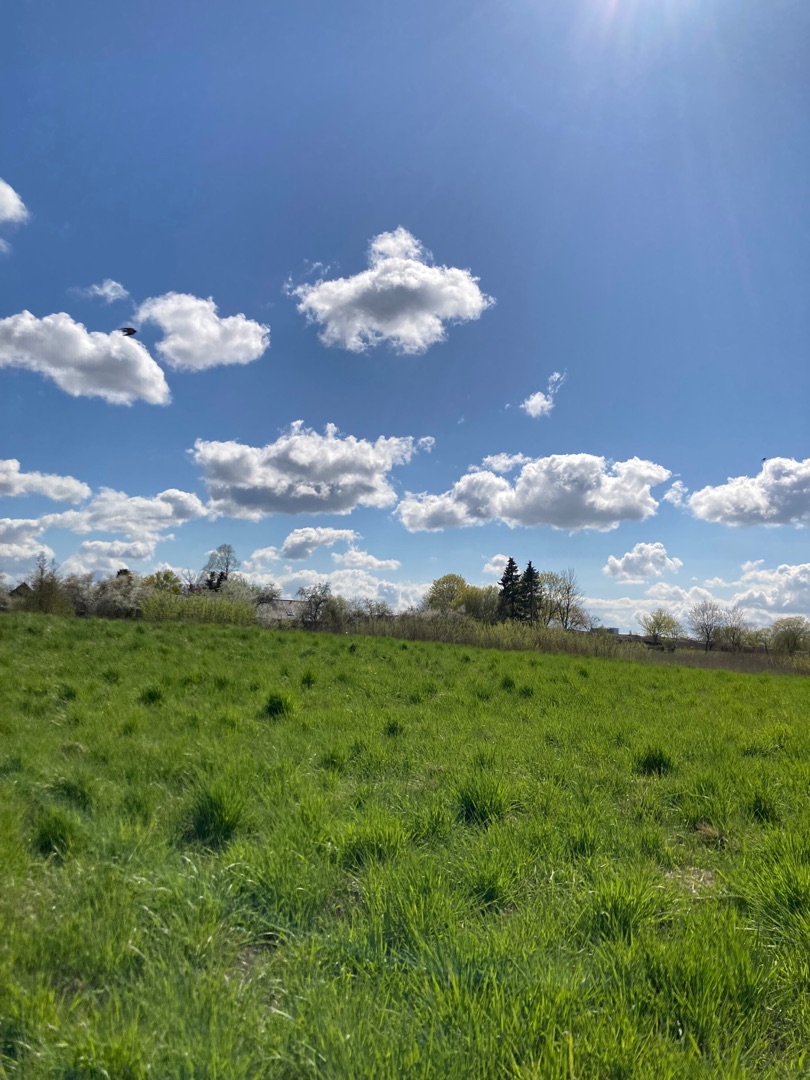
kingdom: Animalia
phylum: Chordata
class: Aves
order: Passeriformes
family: Hirundinidae
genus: Hirundo
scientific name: Hirundo rustica
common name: Landsvale
